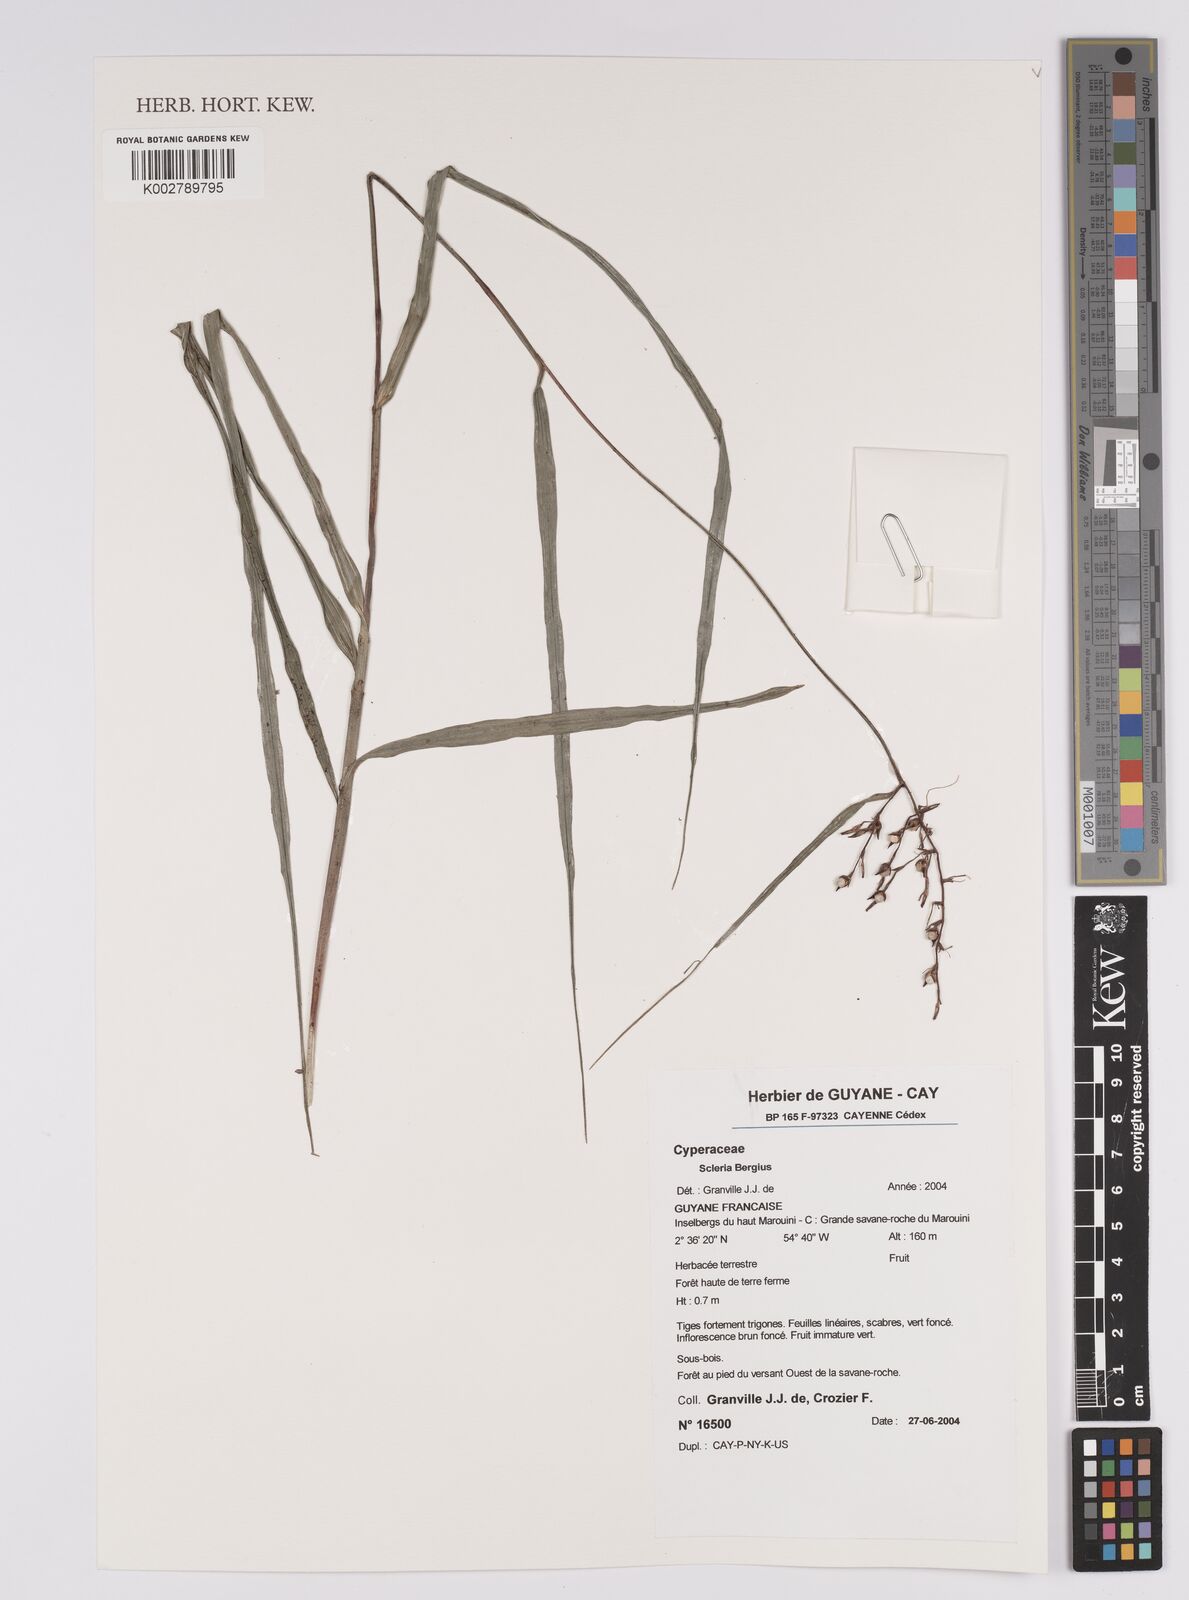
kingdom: Plantae
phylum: Tracheophyta
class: Liliopsida
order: Poales
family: Cyperaceae
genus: Scleria
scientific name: Scleria
